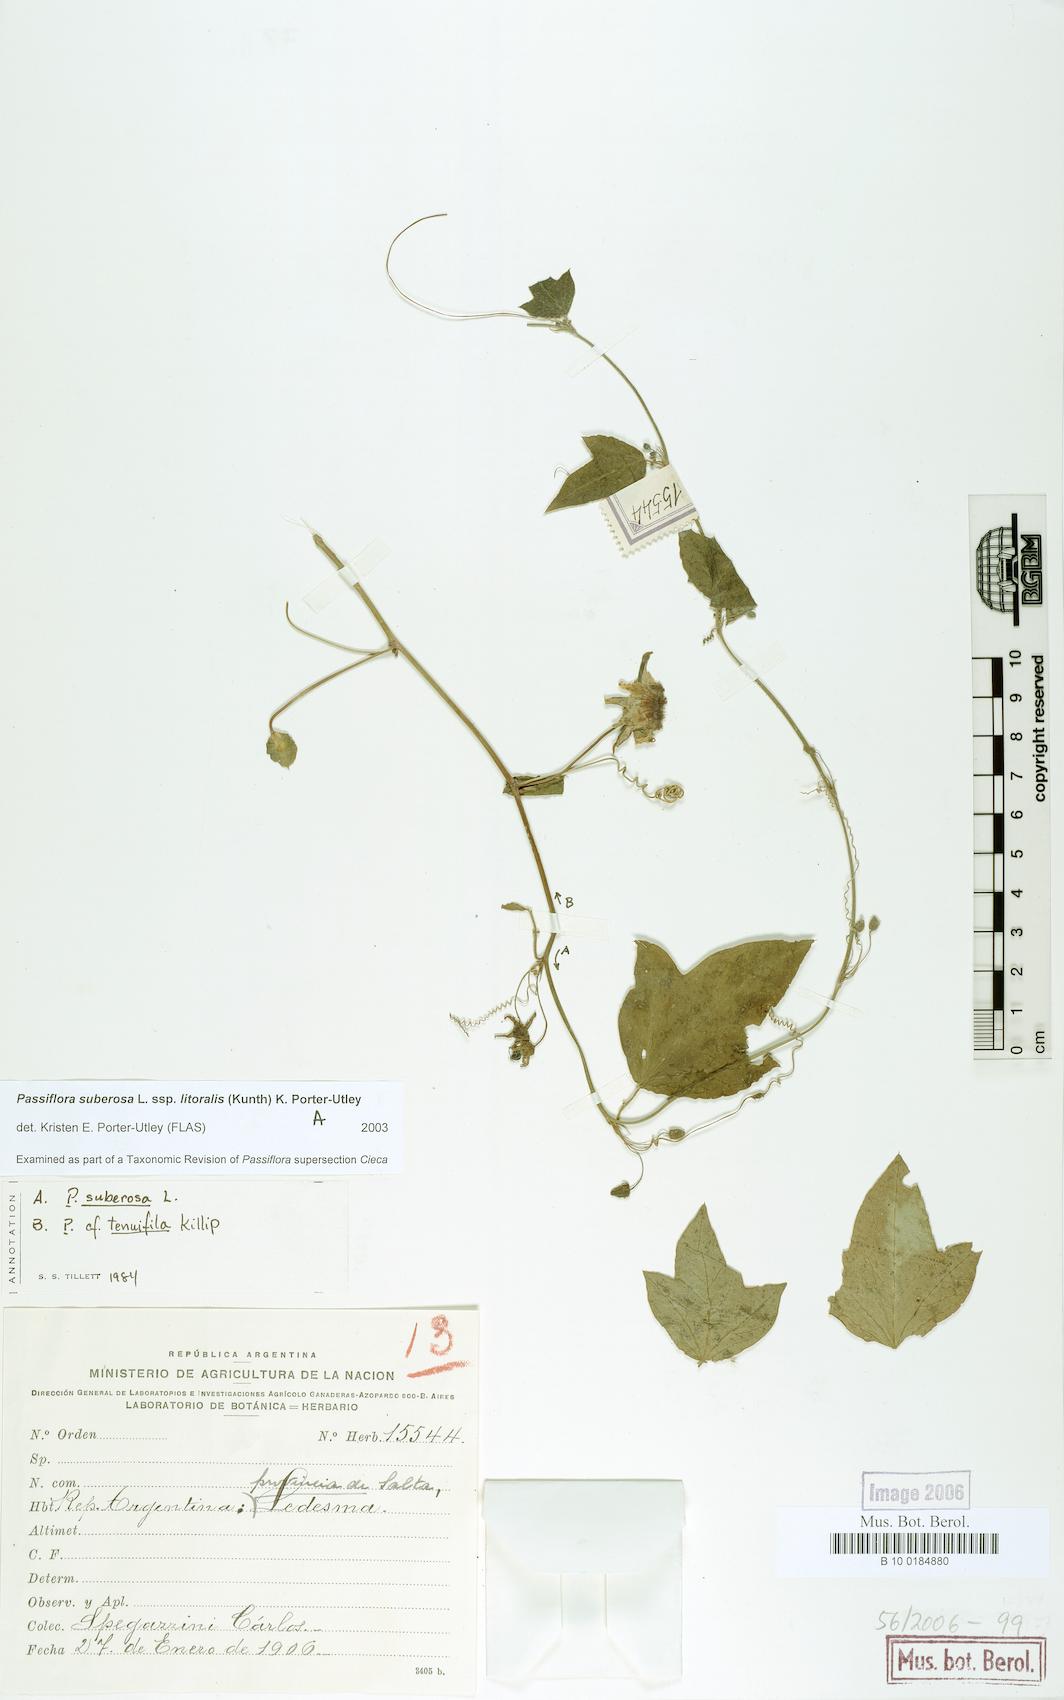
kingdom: Plantae
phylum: Tracheophyta
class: Magnoliopsida
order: Malpighiales
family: Passifloraceae
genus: Passiflora
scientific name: Passiflora suberosa
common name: Wild passionfruit
